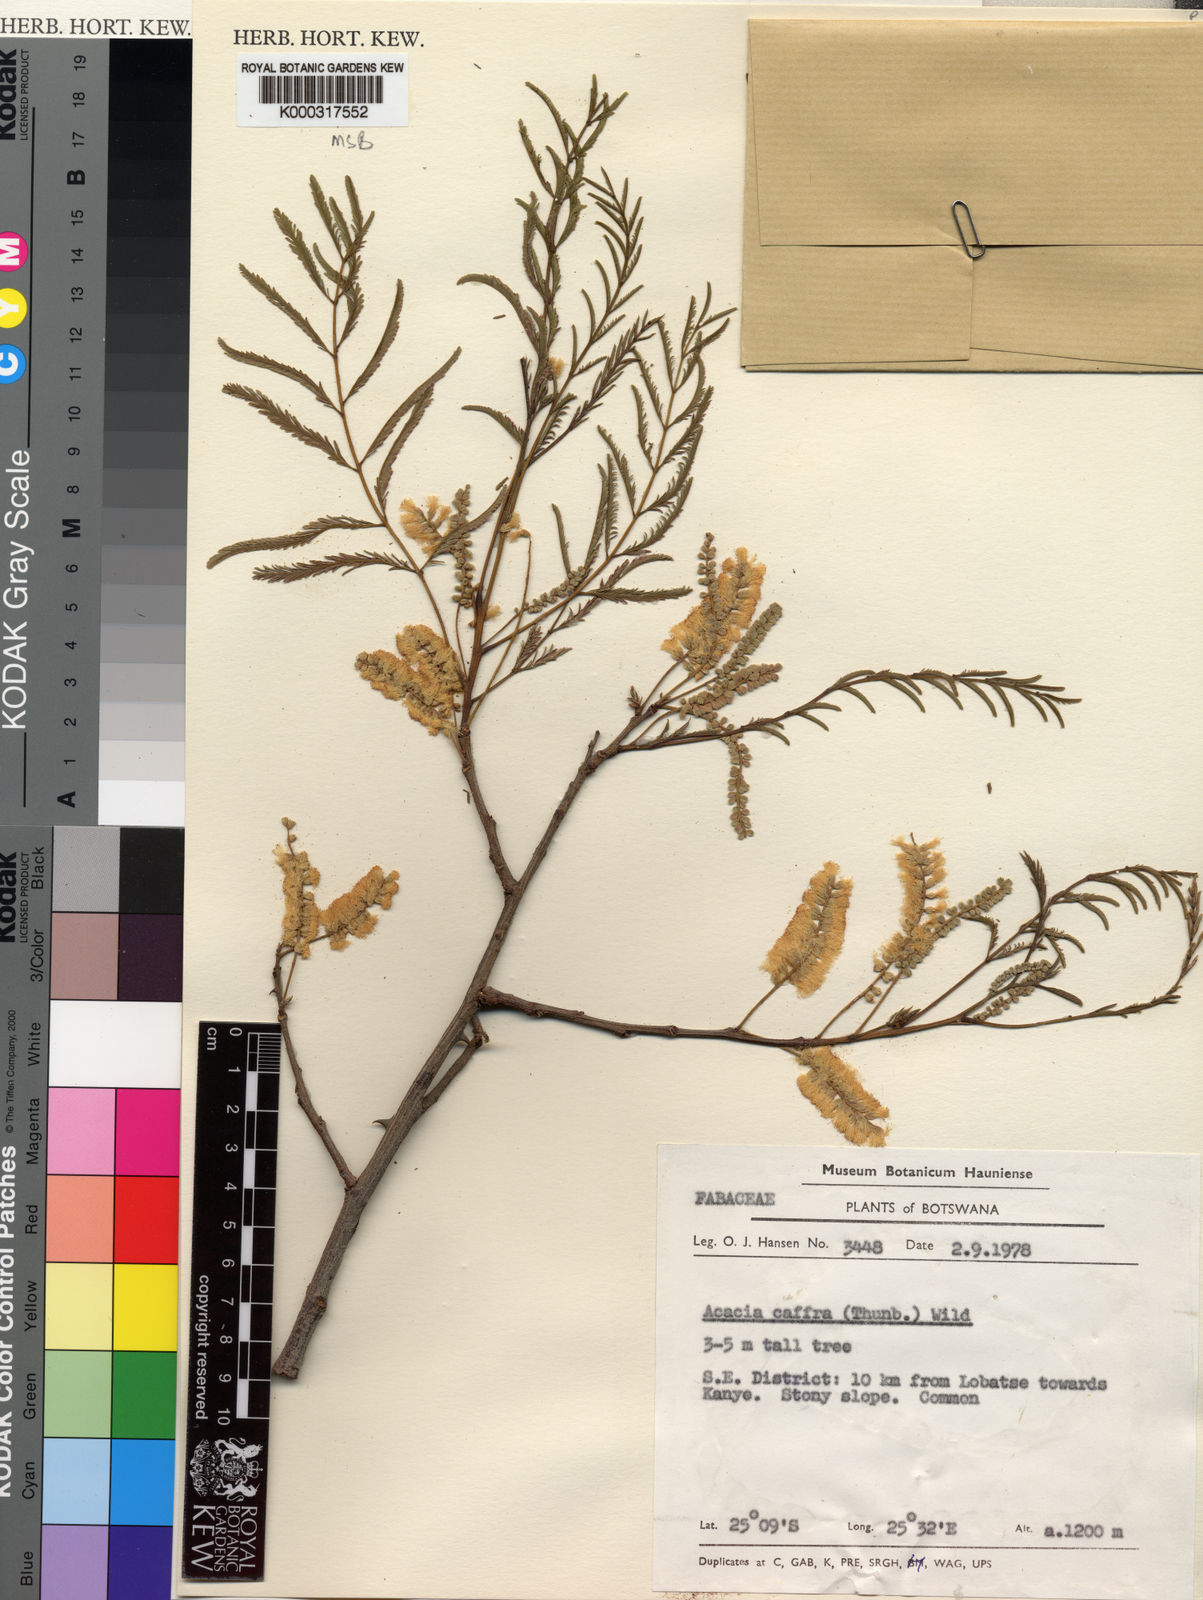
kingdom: Plantae
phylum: Tracheophyta
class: Magnoliopsida
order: Fabales
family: Fabaceae
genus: Senegalia
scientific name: Senegalia caffra
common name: Cat thorn
